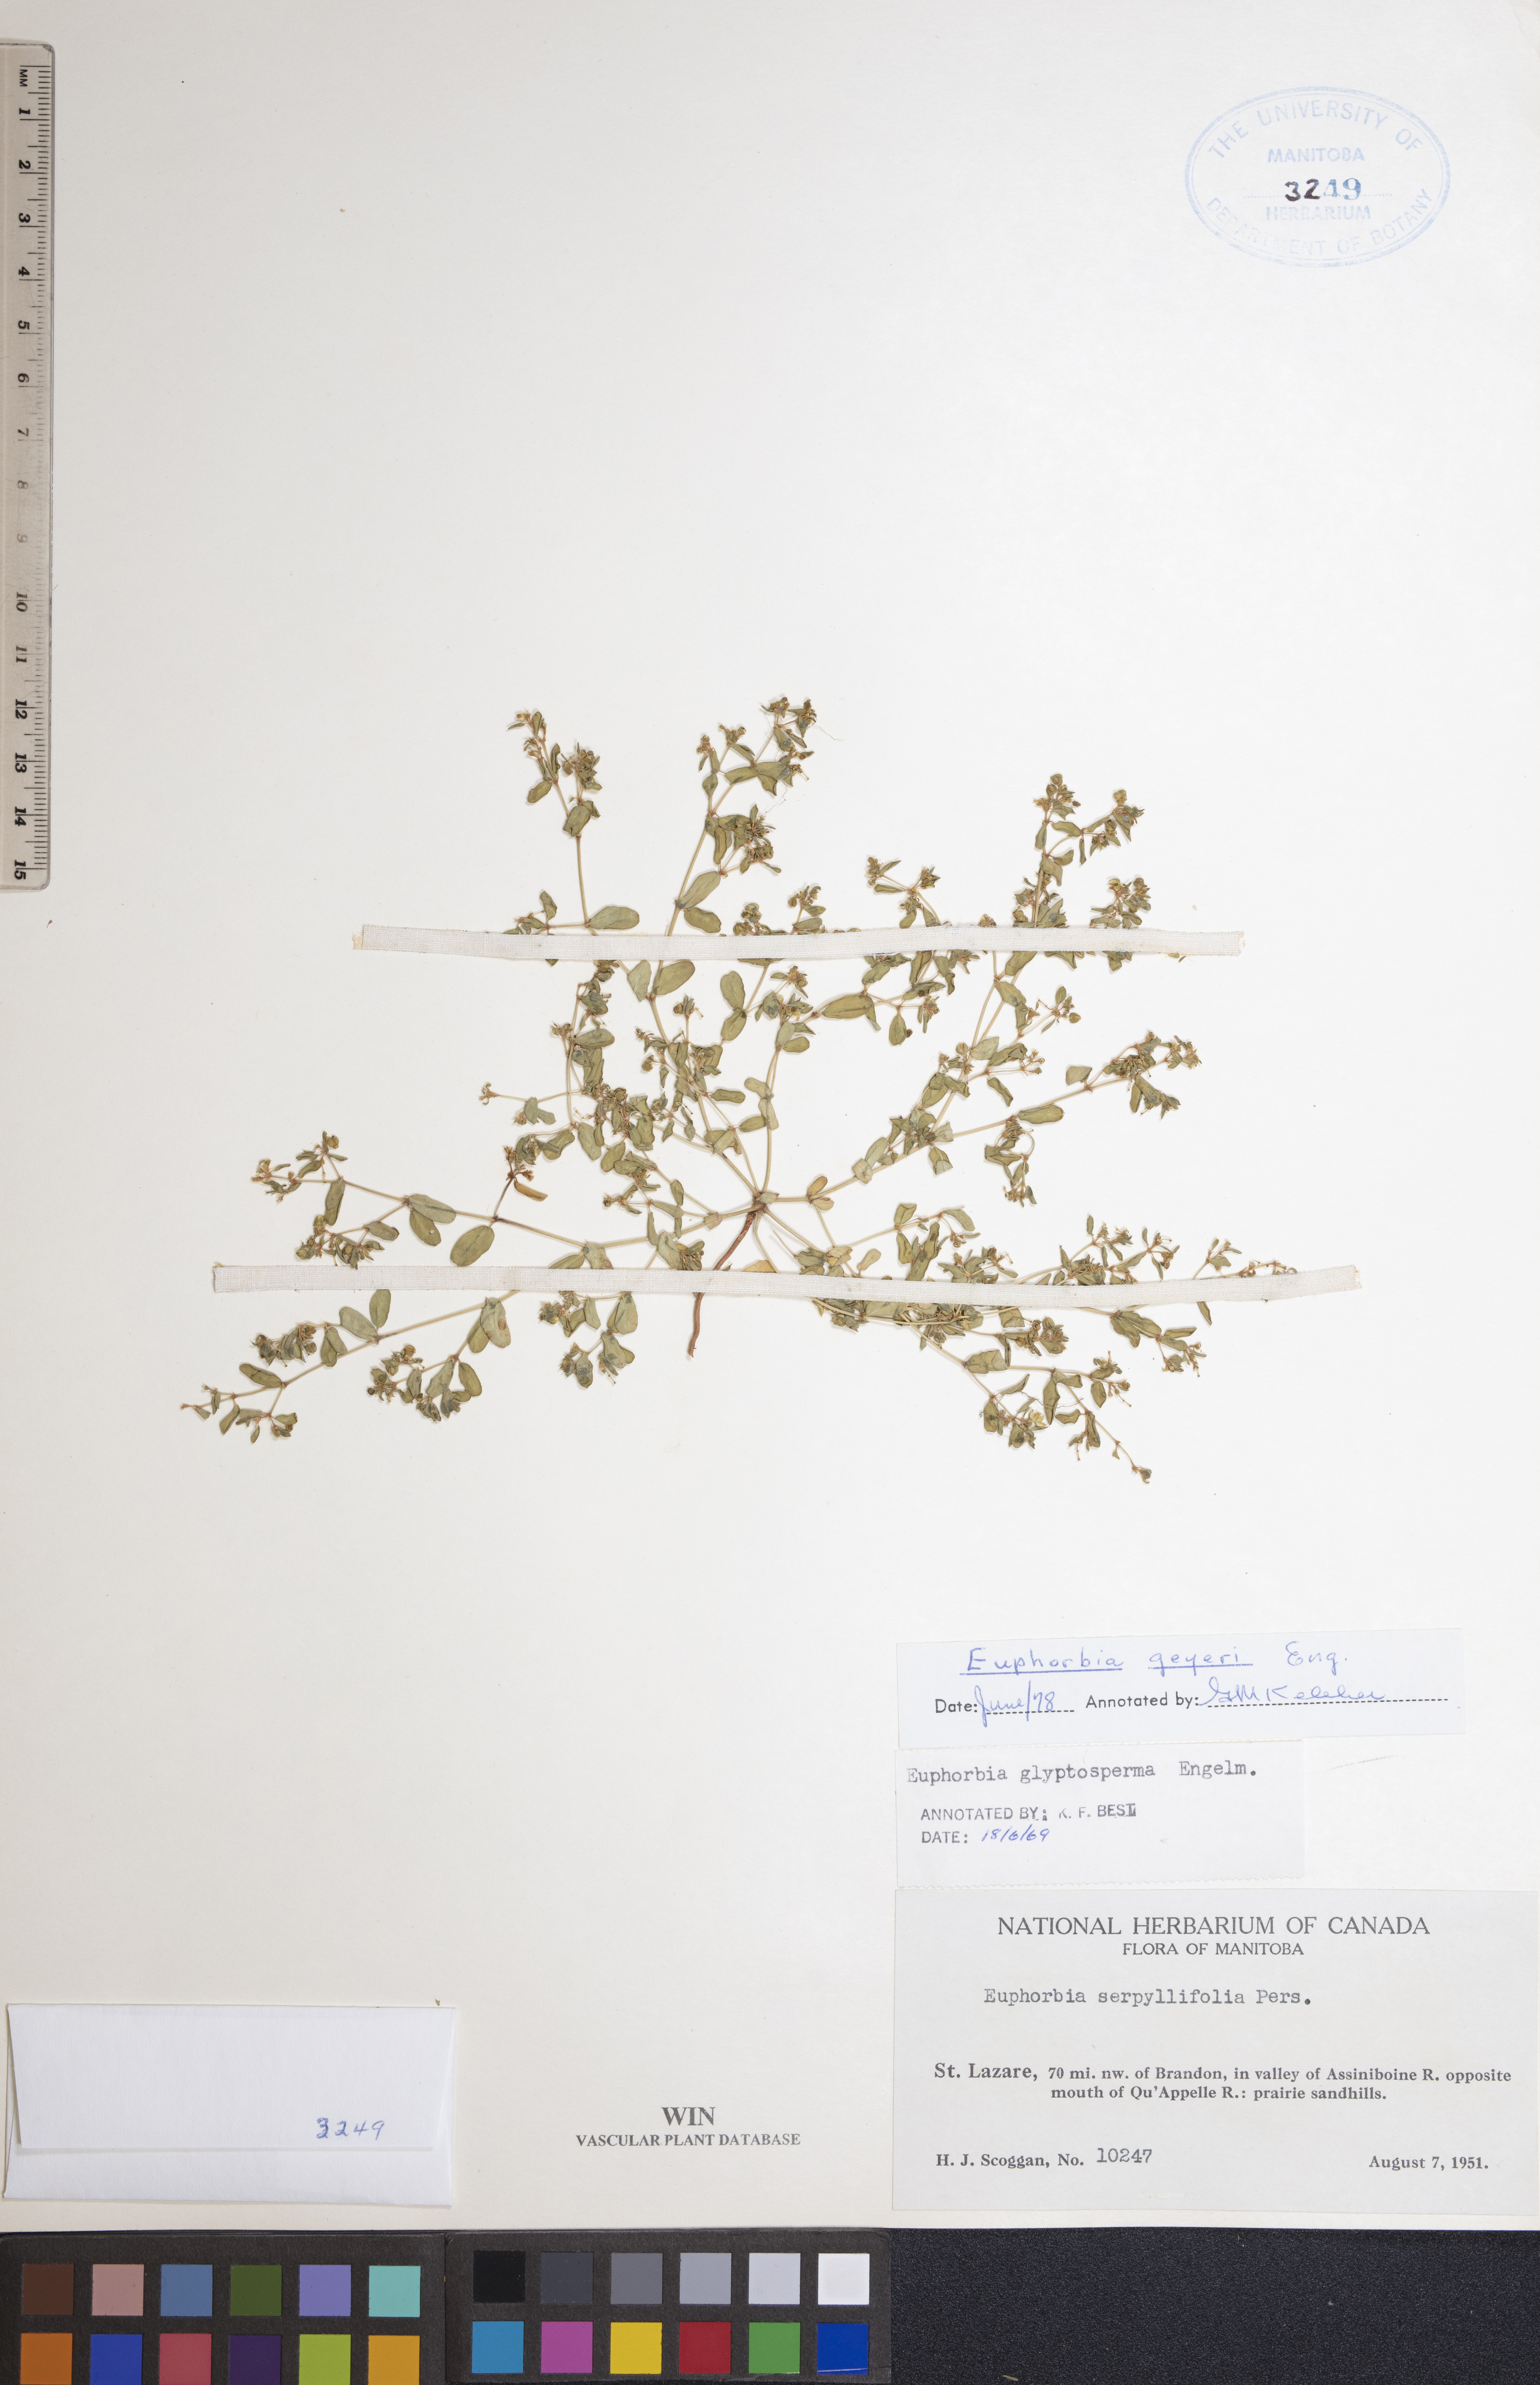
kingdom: Plantae
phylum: Tracheophyta
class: Magnoliopsida
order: Malpighiales
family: Euphorbiaceae
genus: Euphorbia
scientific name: Euphorbia geyeri
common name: Geyer's spurge
